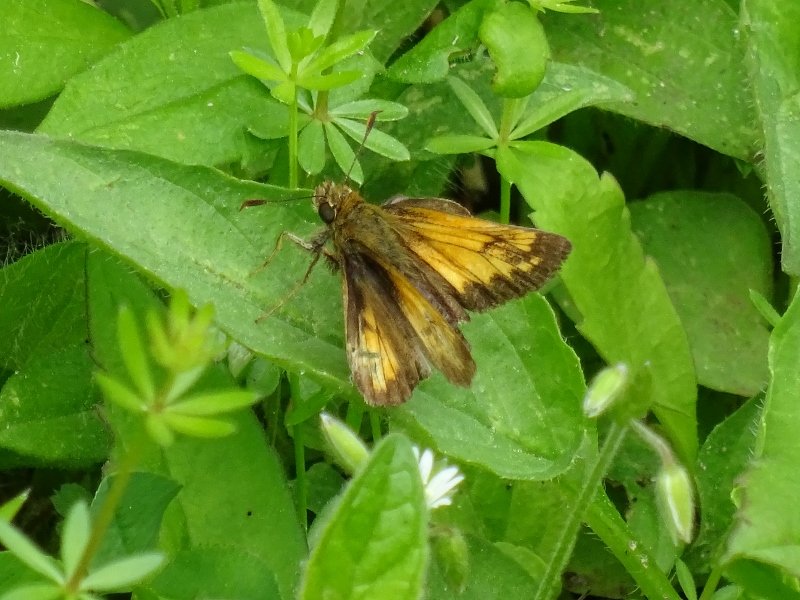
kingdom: Animalia
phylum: Arthropoda
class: Insecta
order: Lepidoptera
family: Hesperiidae
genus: Lon
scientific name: Lon hobomok
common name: Hobomok Skipper
